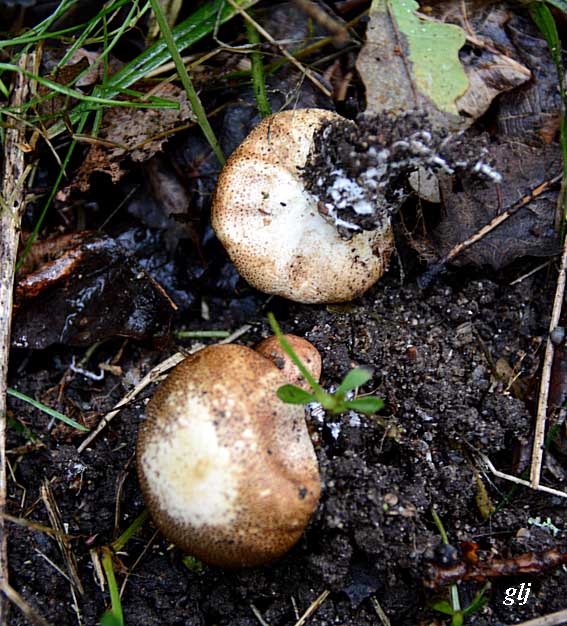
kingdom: Fungi
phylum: Basidiomycota
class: Agaricomycetes
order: Boletales
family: Sclerodermataceae
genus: Scleroderma
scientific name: Scleroderma areolatum
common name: plettet bruskbold
